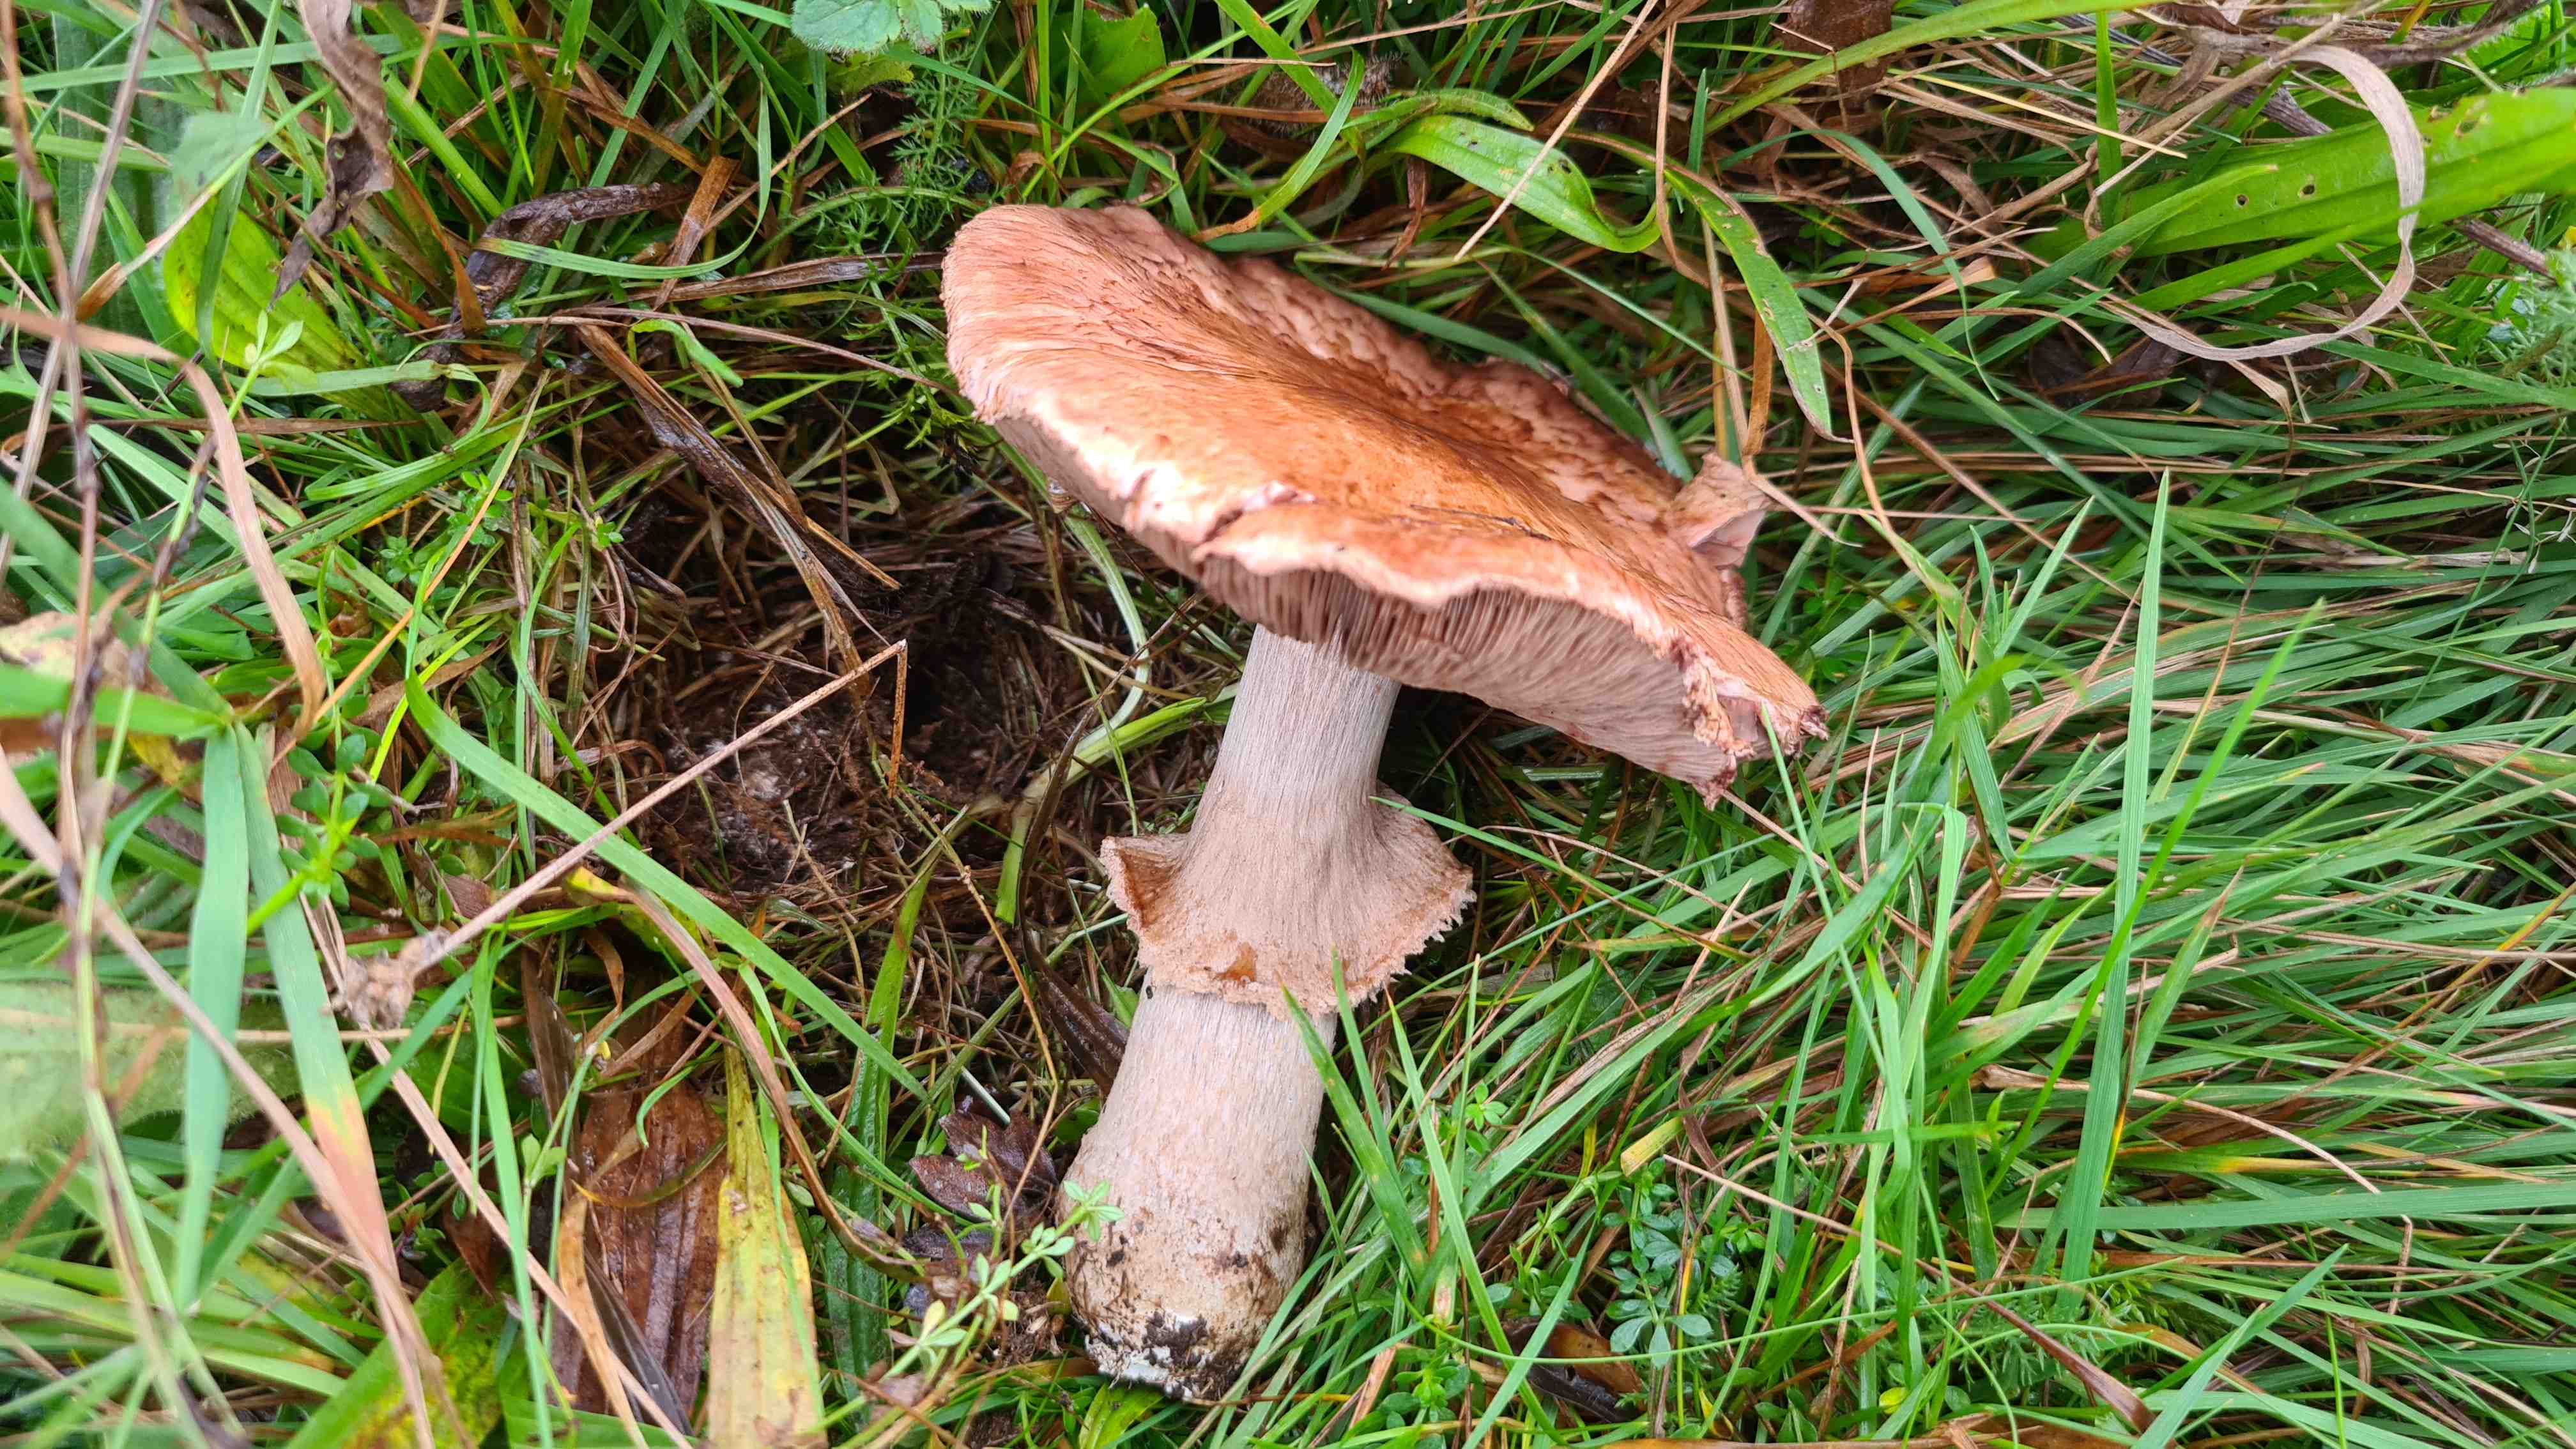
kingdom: Fungi
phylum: Basidiomycota
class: Agaricomycetes
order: Agaricales
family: Agaricaceae
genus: Agaricus
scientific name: Agaricus
